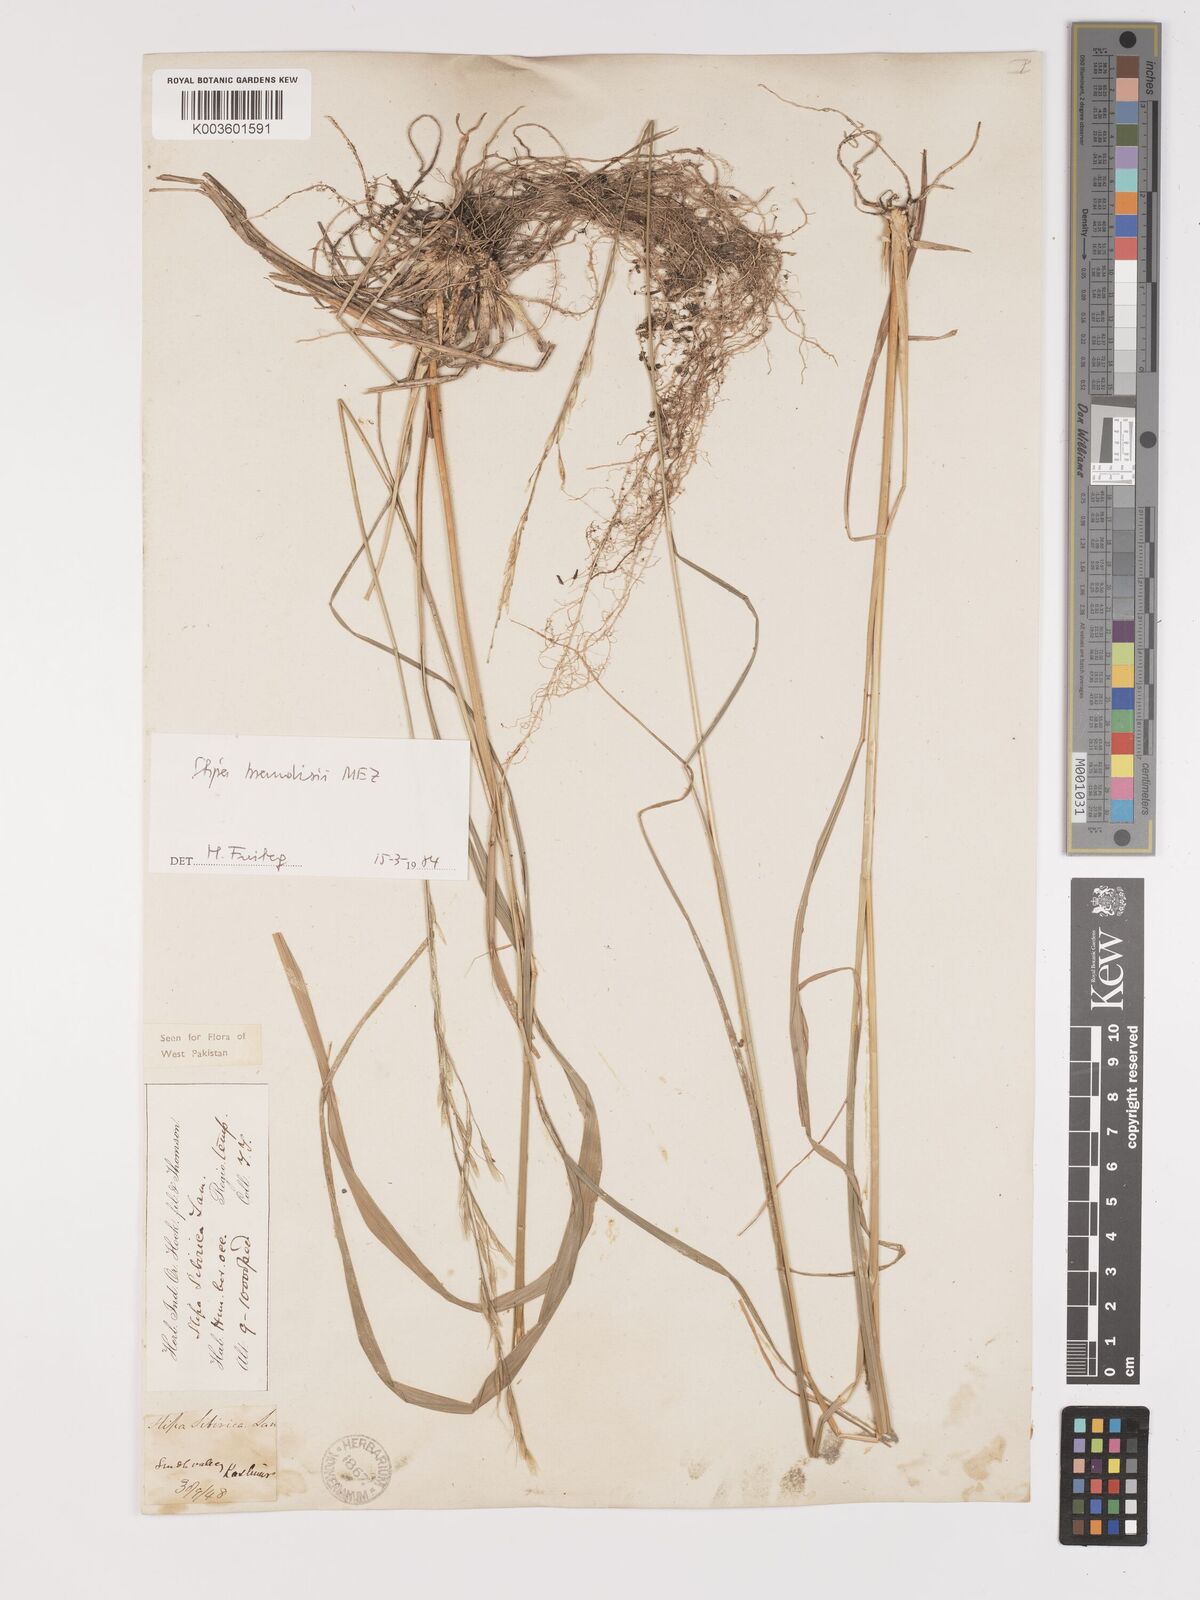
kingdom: Plantae
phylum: Tracheophyta
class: Liliopsida
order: Poales
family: Poaceae
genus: Achnatherum
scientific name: Achnatherum brandisii
